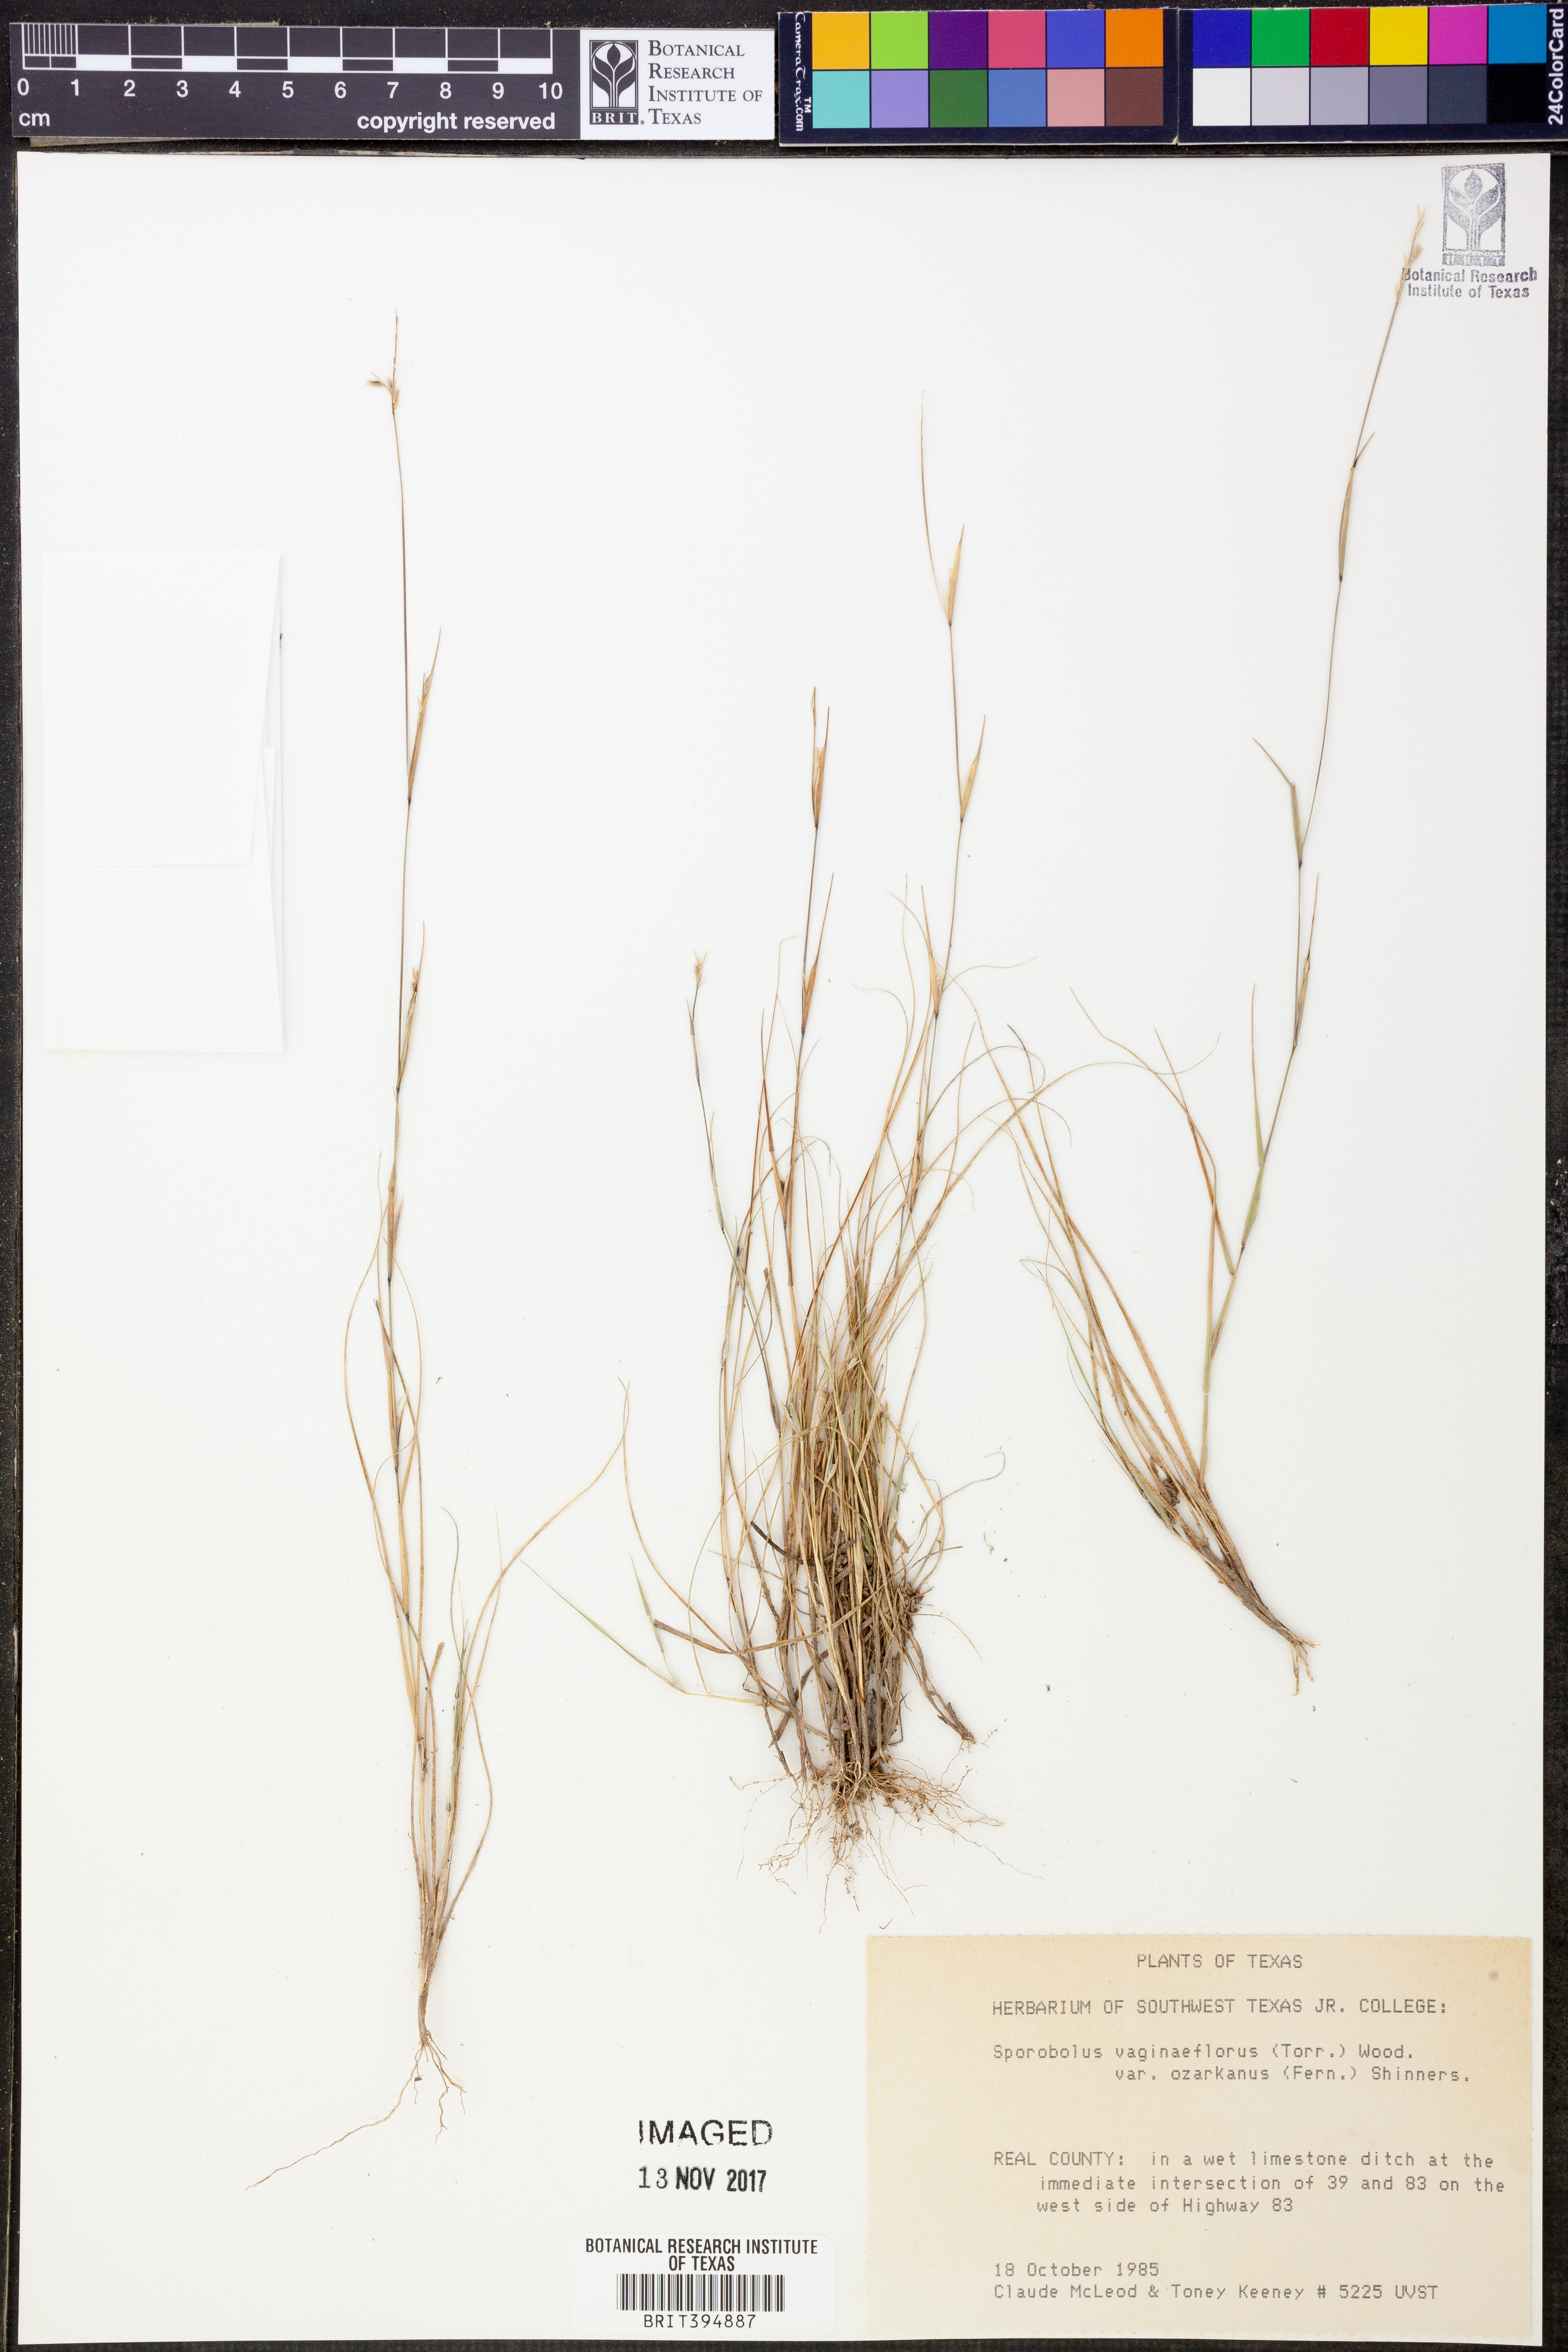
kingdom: Plantae
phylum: Tracheophyta
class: Liliopsida
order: Poales
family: Poaceae
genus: Sporobolus
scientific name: Sporobolus neglectus
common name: Annual dropseed
